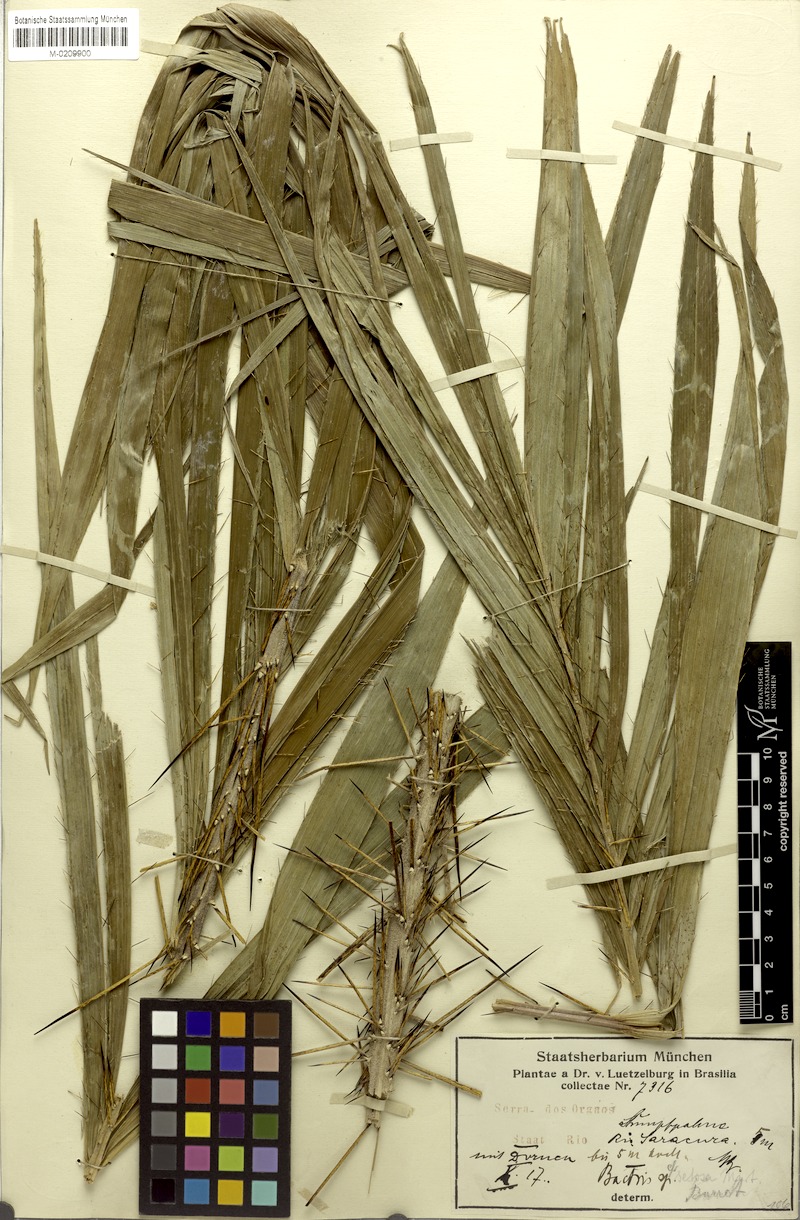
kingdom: Plantae
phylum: Tracheophyta
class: Liliopsida
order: Arecales
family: Arecaceae
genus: Bactris
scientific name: Bactris setosa
